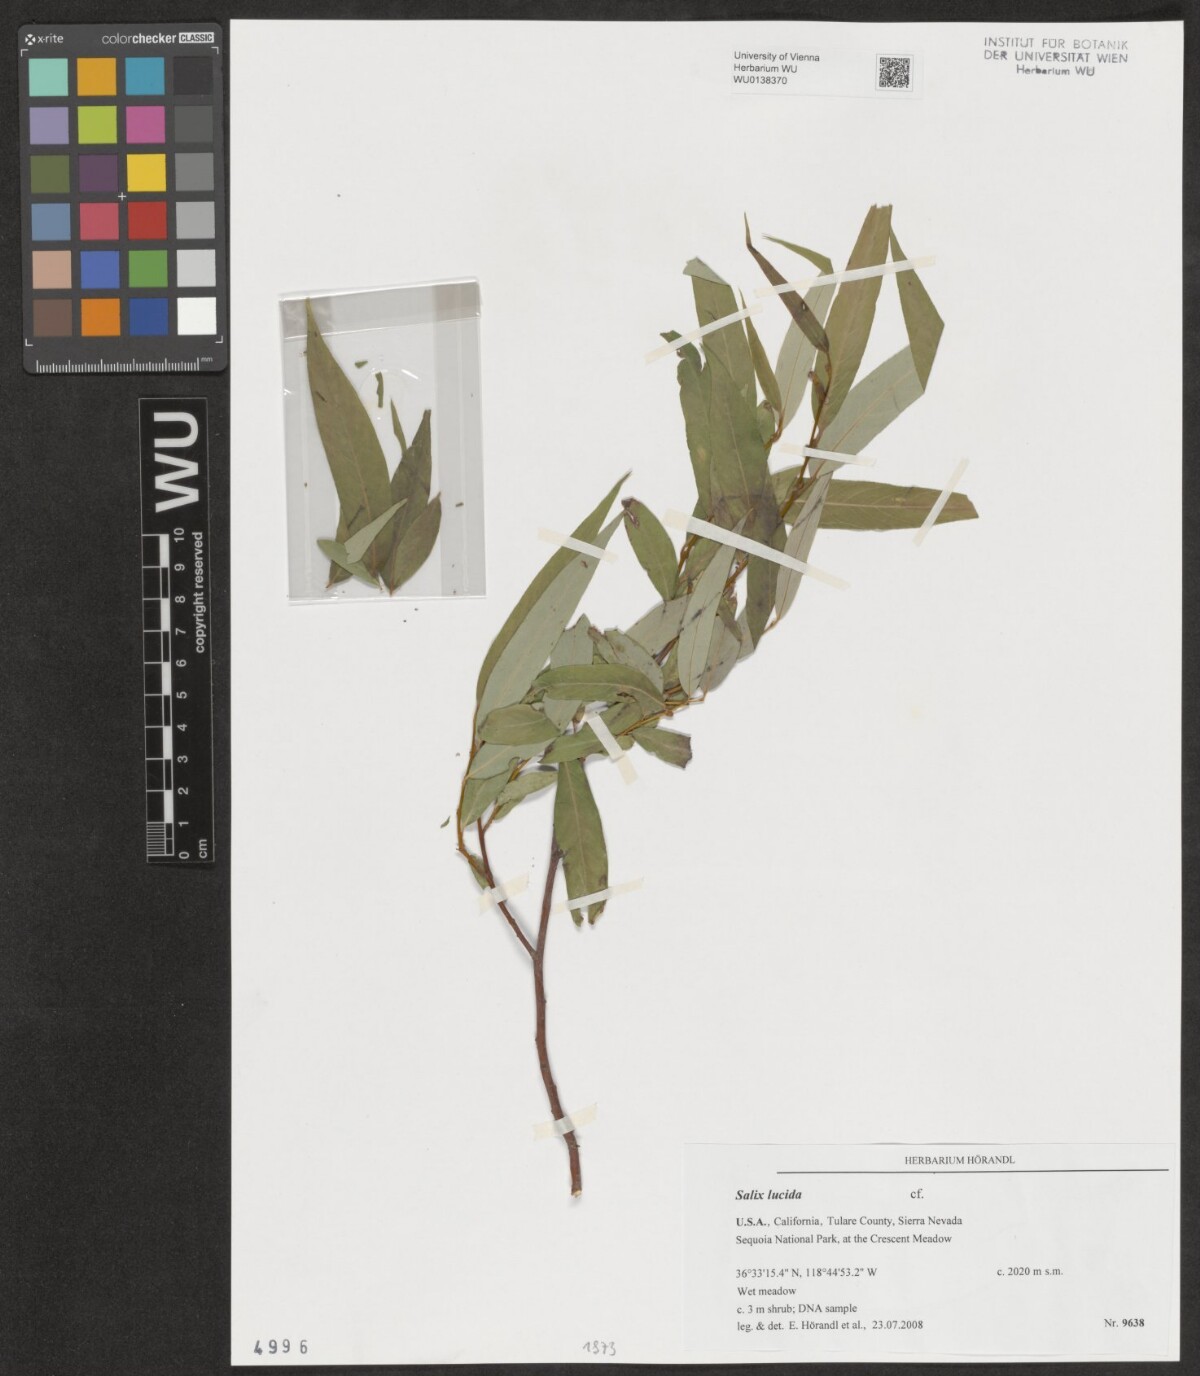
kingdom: Plantae
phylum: Tracheophyta
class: Magnoliopsida
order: Malpighiales
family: Salicaceae
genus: Salix
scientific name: Salix lucida
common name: Shining willow
